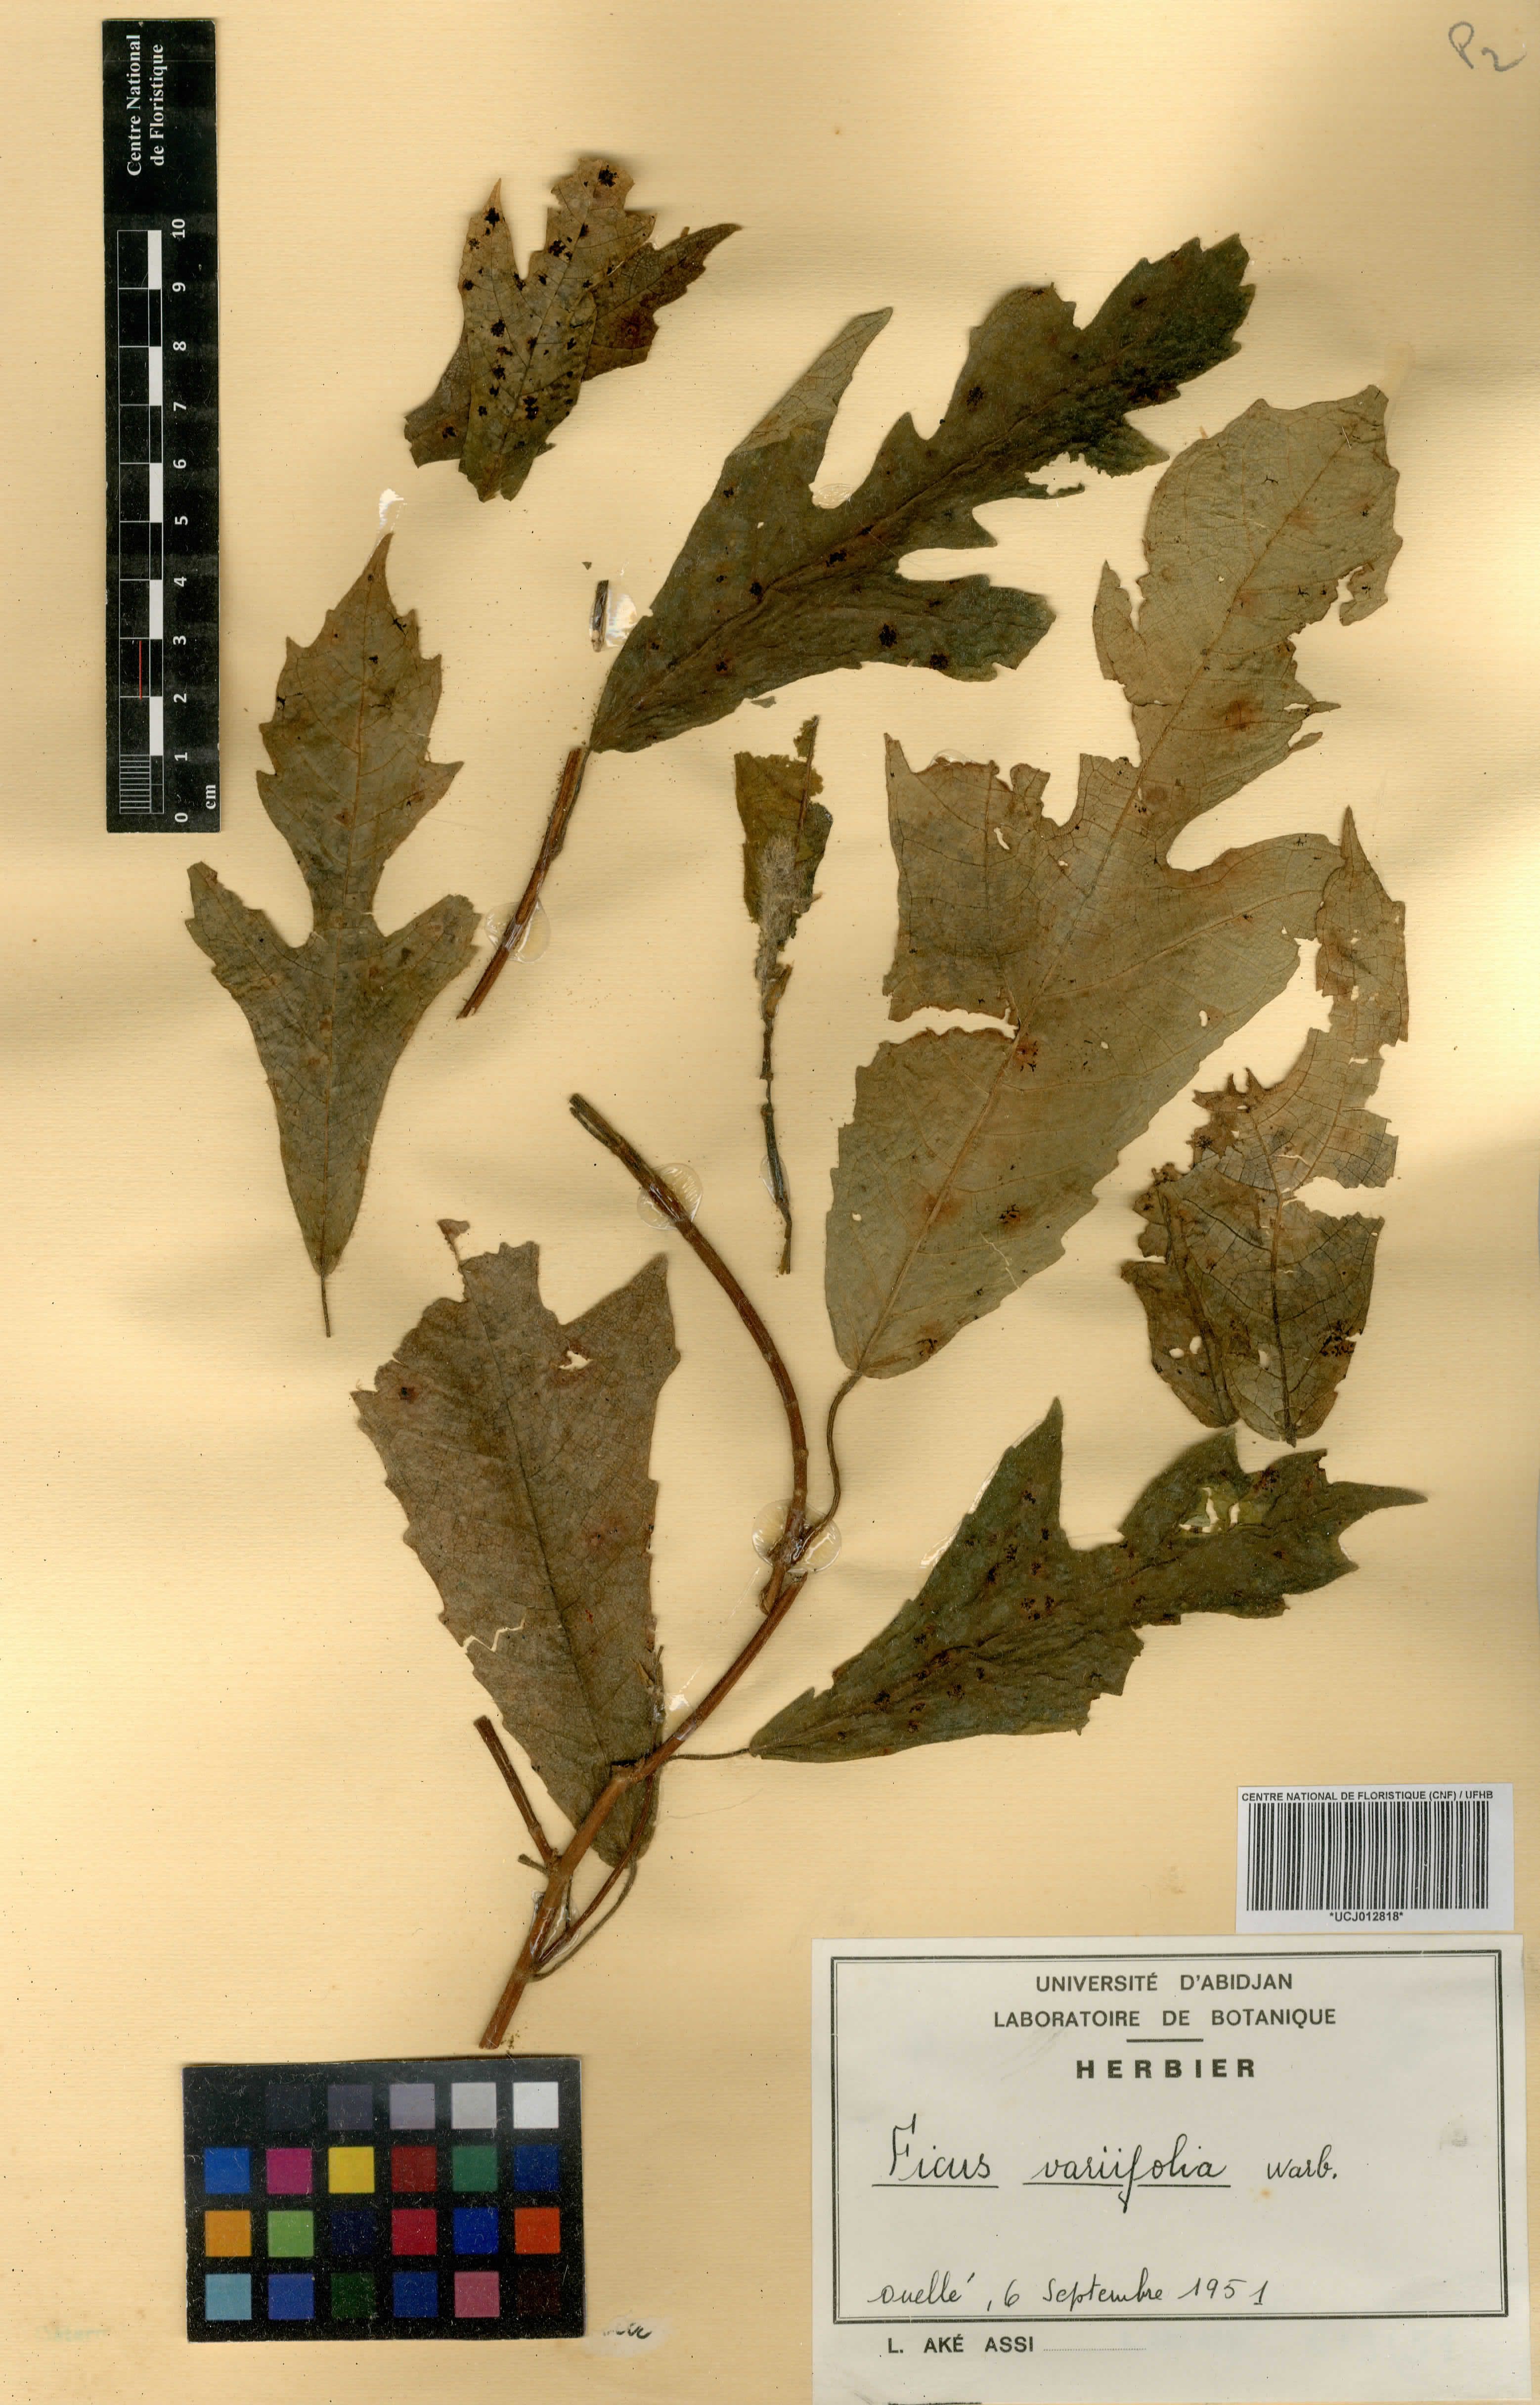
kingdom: Plantae
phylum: Tracheophyta
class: Magnoliopsida
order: Rosales
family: Moraceae
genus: Ficus
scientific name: Ficus variifolia
